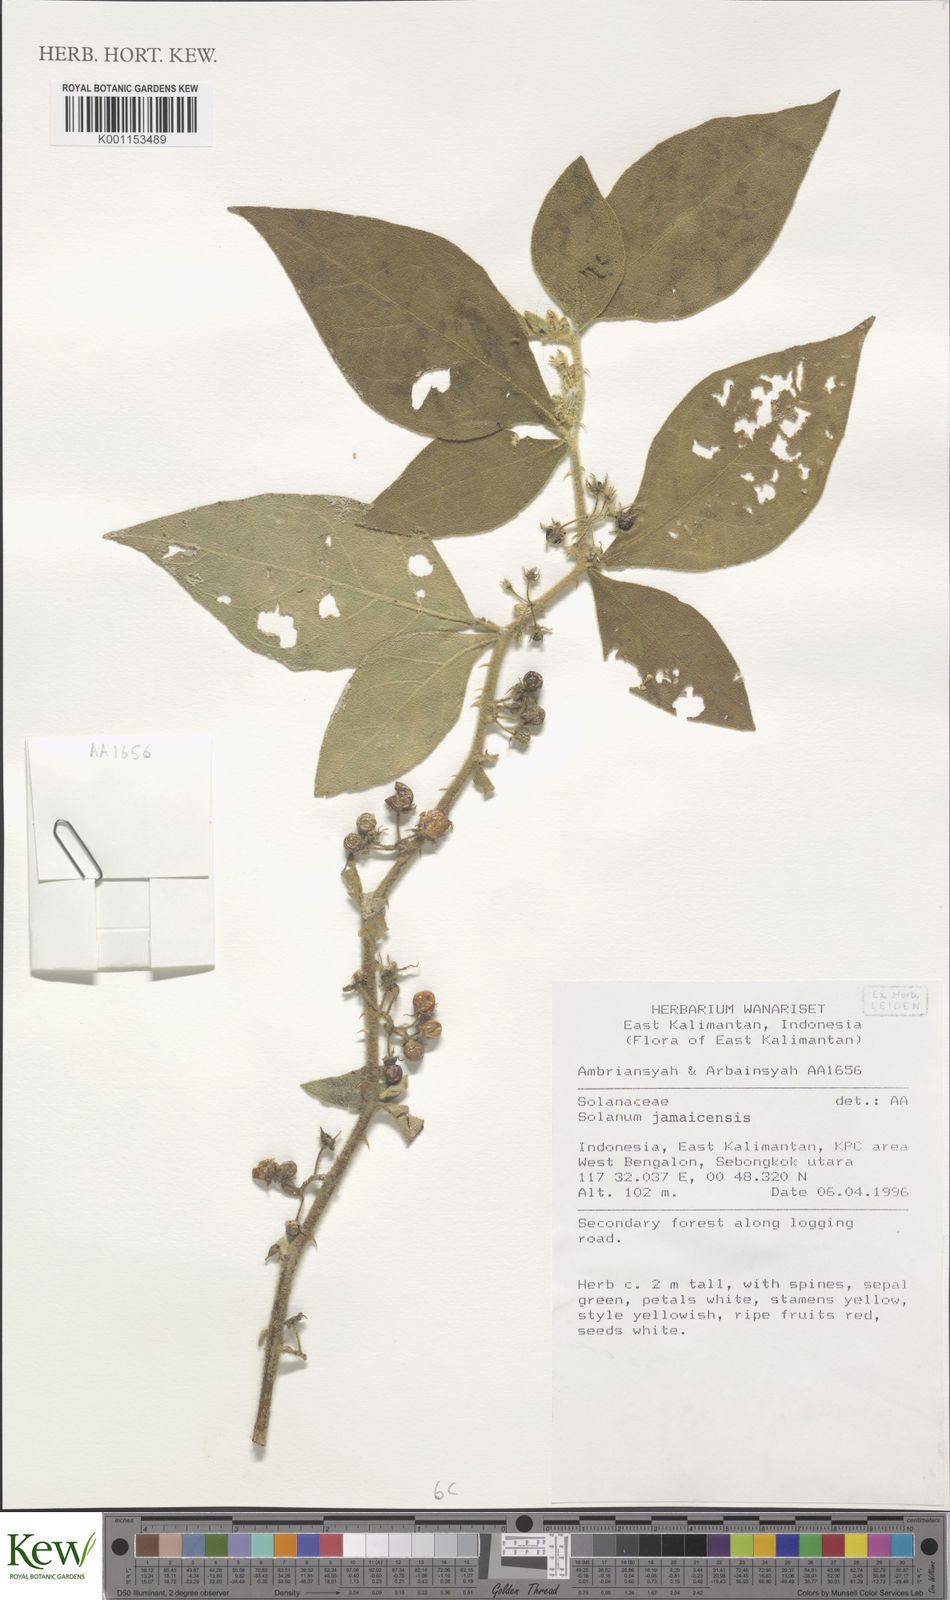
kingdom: Plantae
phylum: Tracheophyta
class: Magnoliopsida
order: Solanales
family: Solanaceae
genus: Solanum
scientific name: Solanum jamaicense
